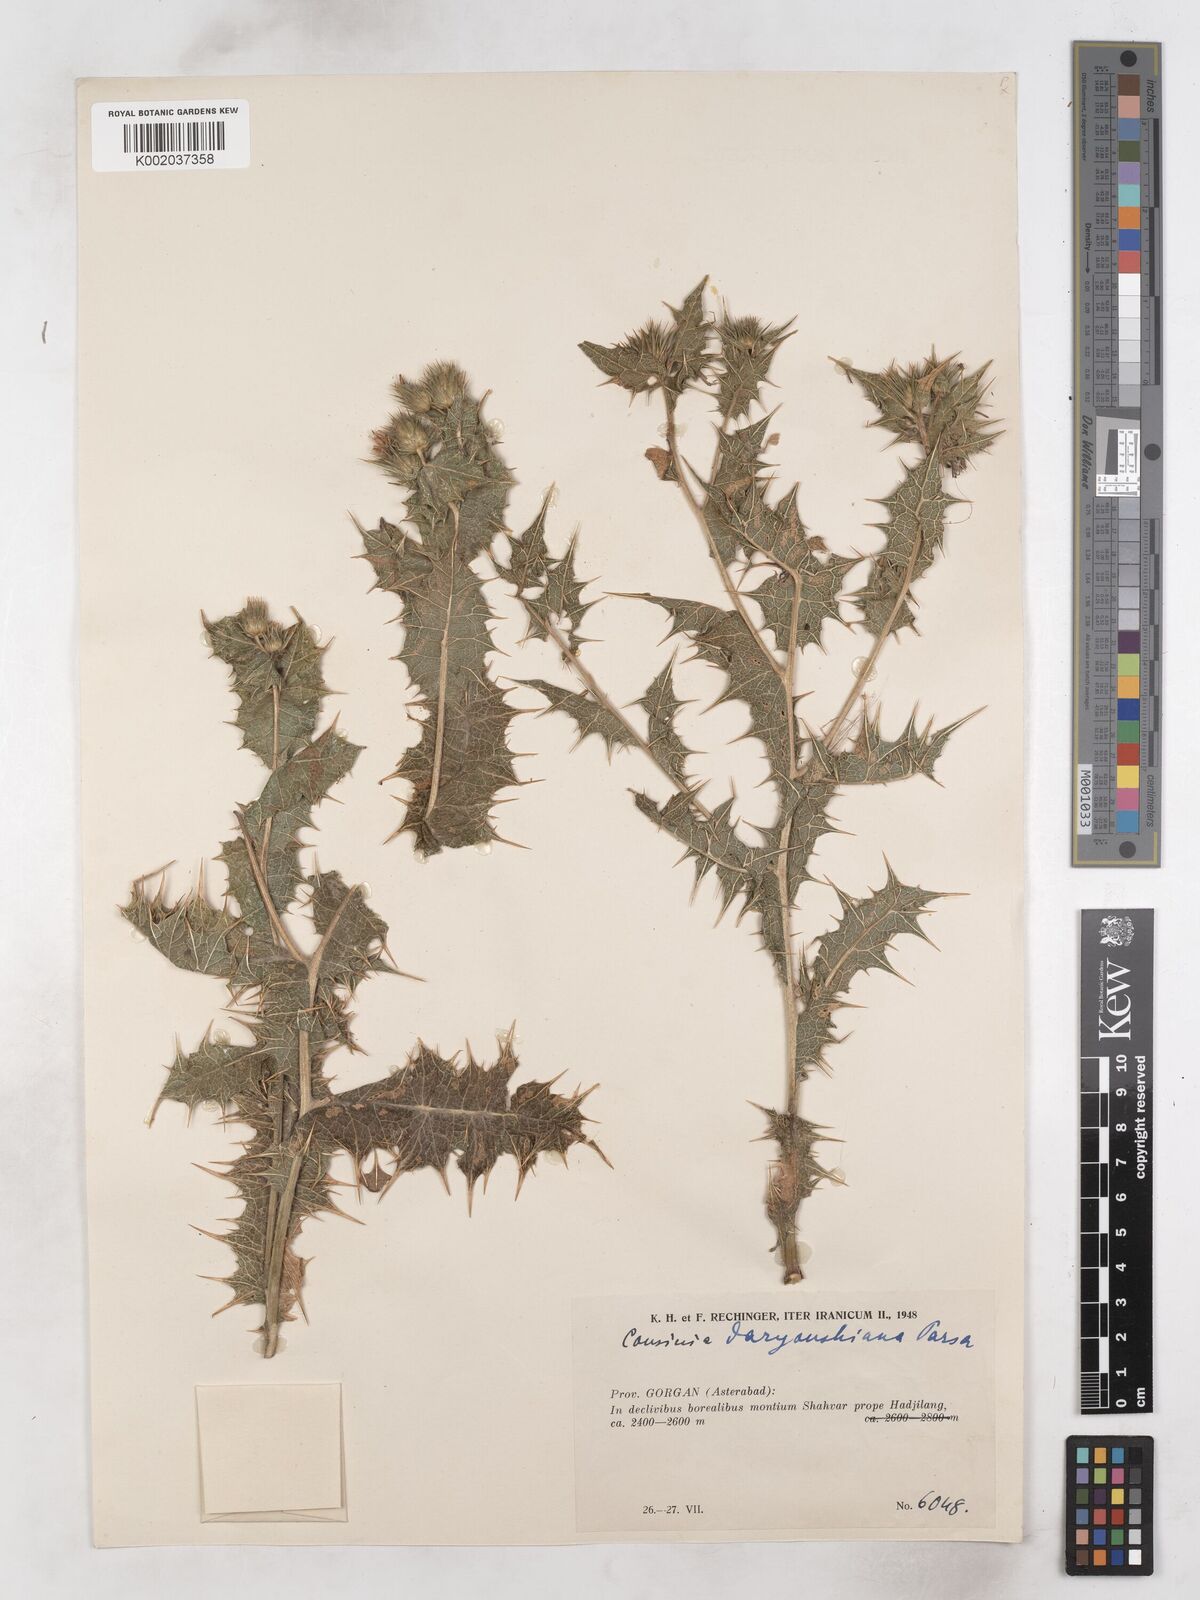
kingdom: Plantae
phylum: Tracheophyta
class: Magnoliopsida
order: Asterales
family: Asteraceae
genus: Cousinia
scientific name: Cousinia decipiens
